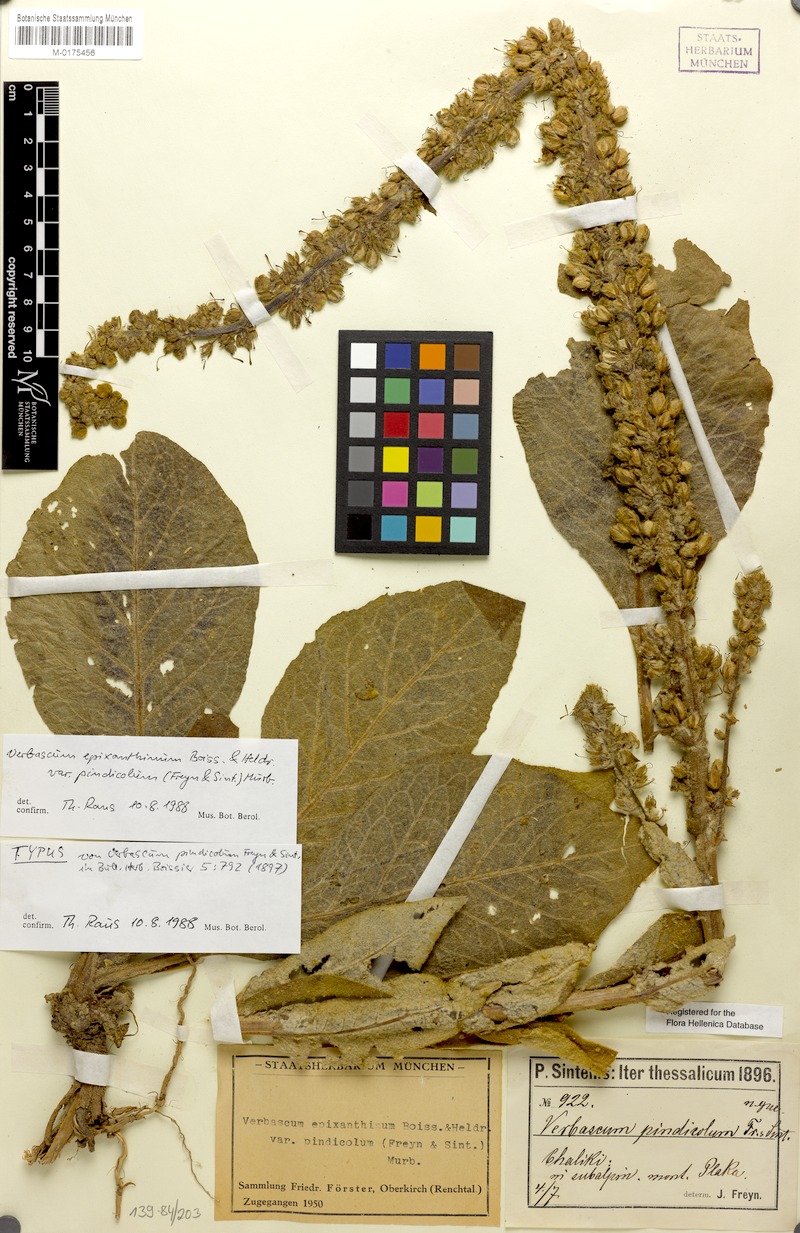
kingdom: Plantae
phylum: Tracheophyta
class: Magnoliopsida
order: Lamiales
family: Scrophulariaceae
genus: Verbascum
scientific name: Verbascum epixanthinum
